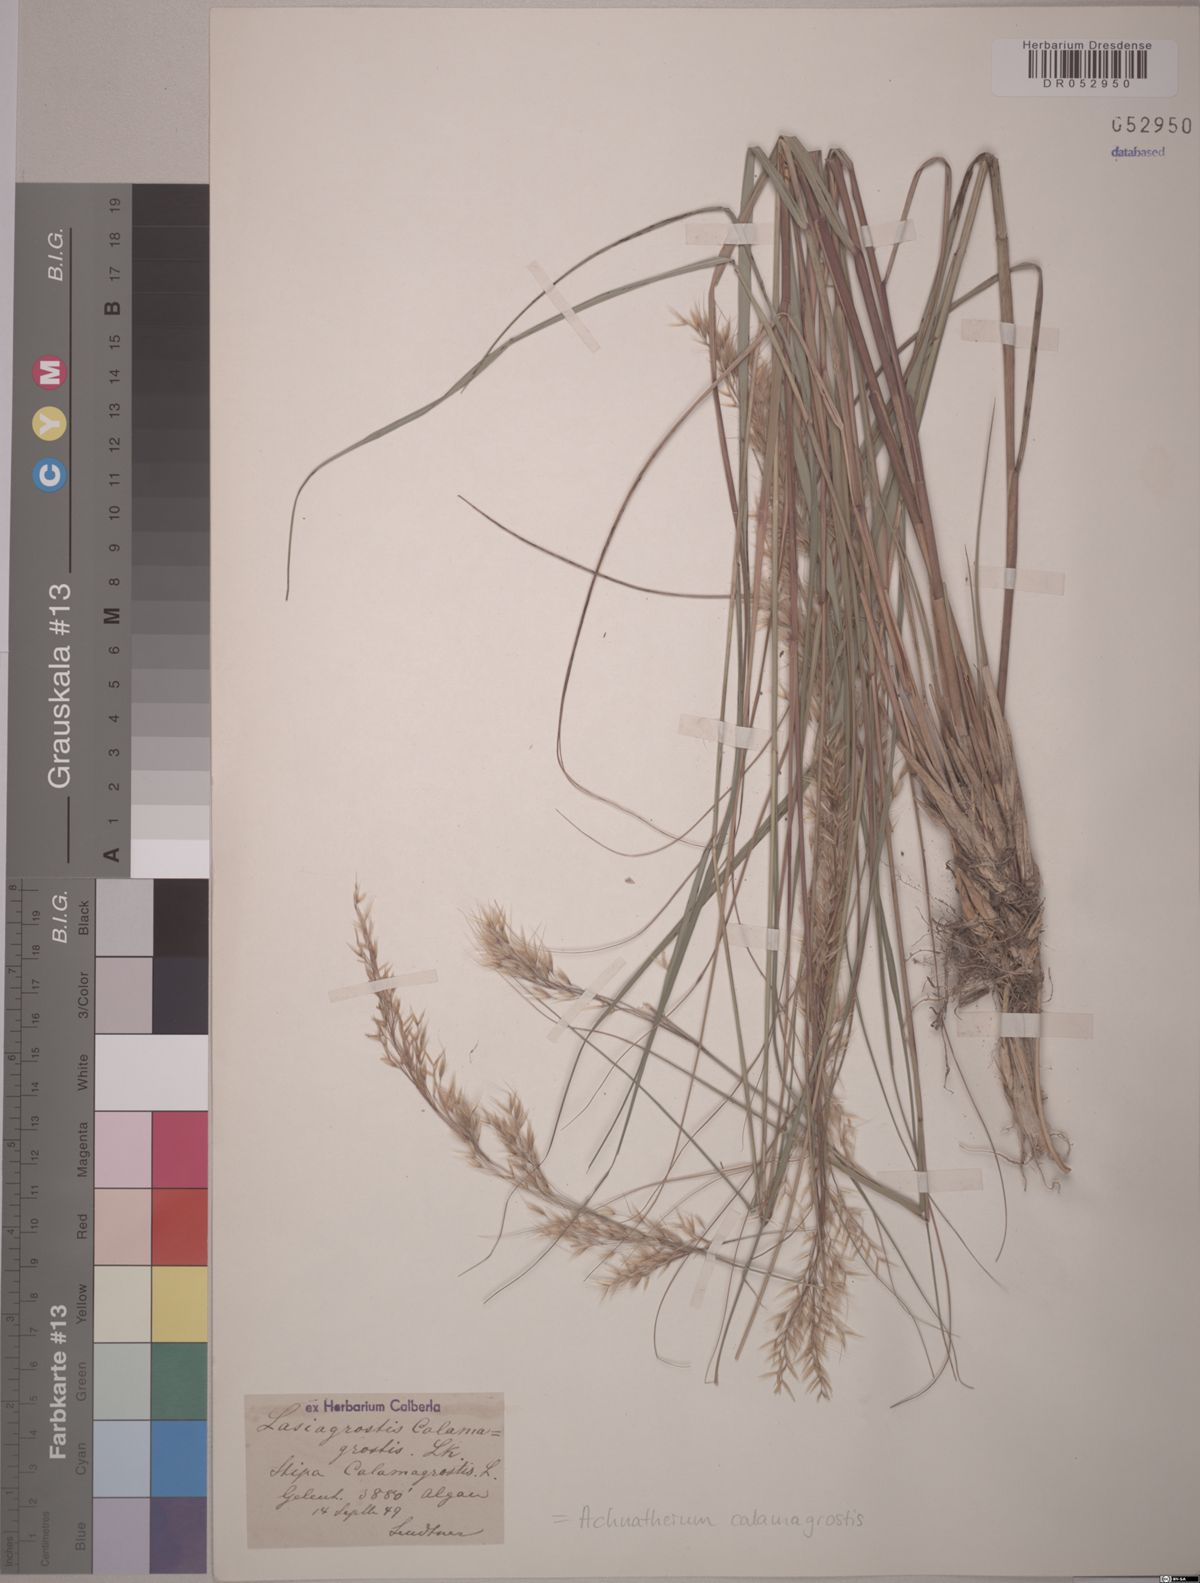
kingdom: Plantae
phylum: Tracheophyta
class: Liliopsida
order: Poales
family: Poaceae
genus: Achnatherum
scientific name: Achnatherum calamagrostis
